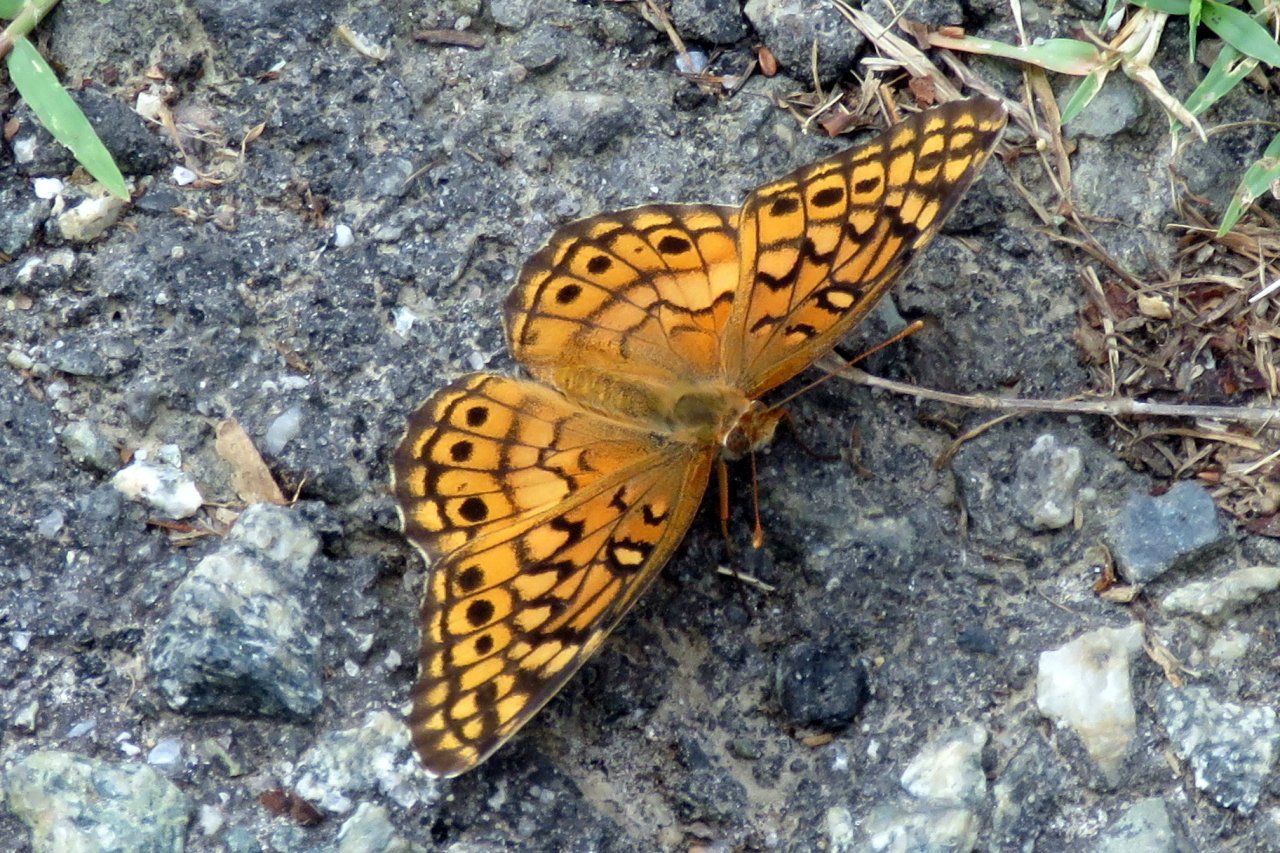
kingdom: Animalia
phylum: Arthropoda
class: Insecta
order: Lepidoptera
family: Nymphalidae
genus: Euptoieta
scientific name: Euptoieta claudia
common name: Variegated Fritillary
